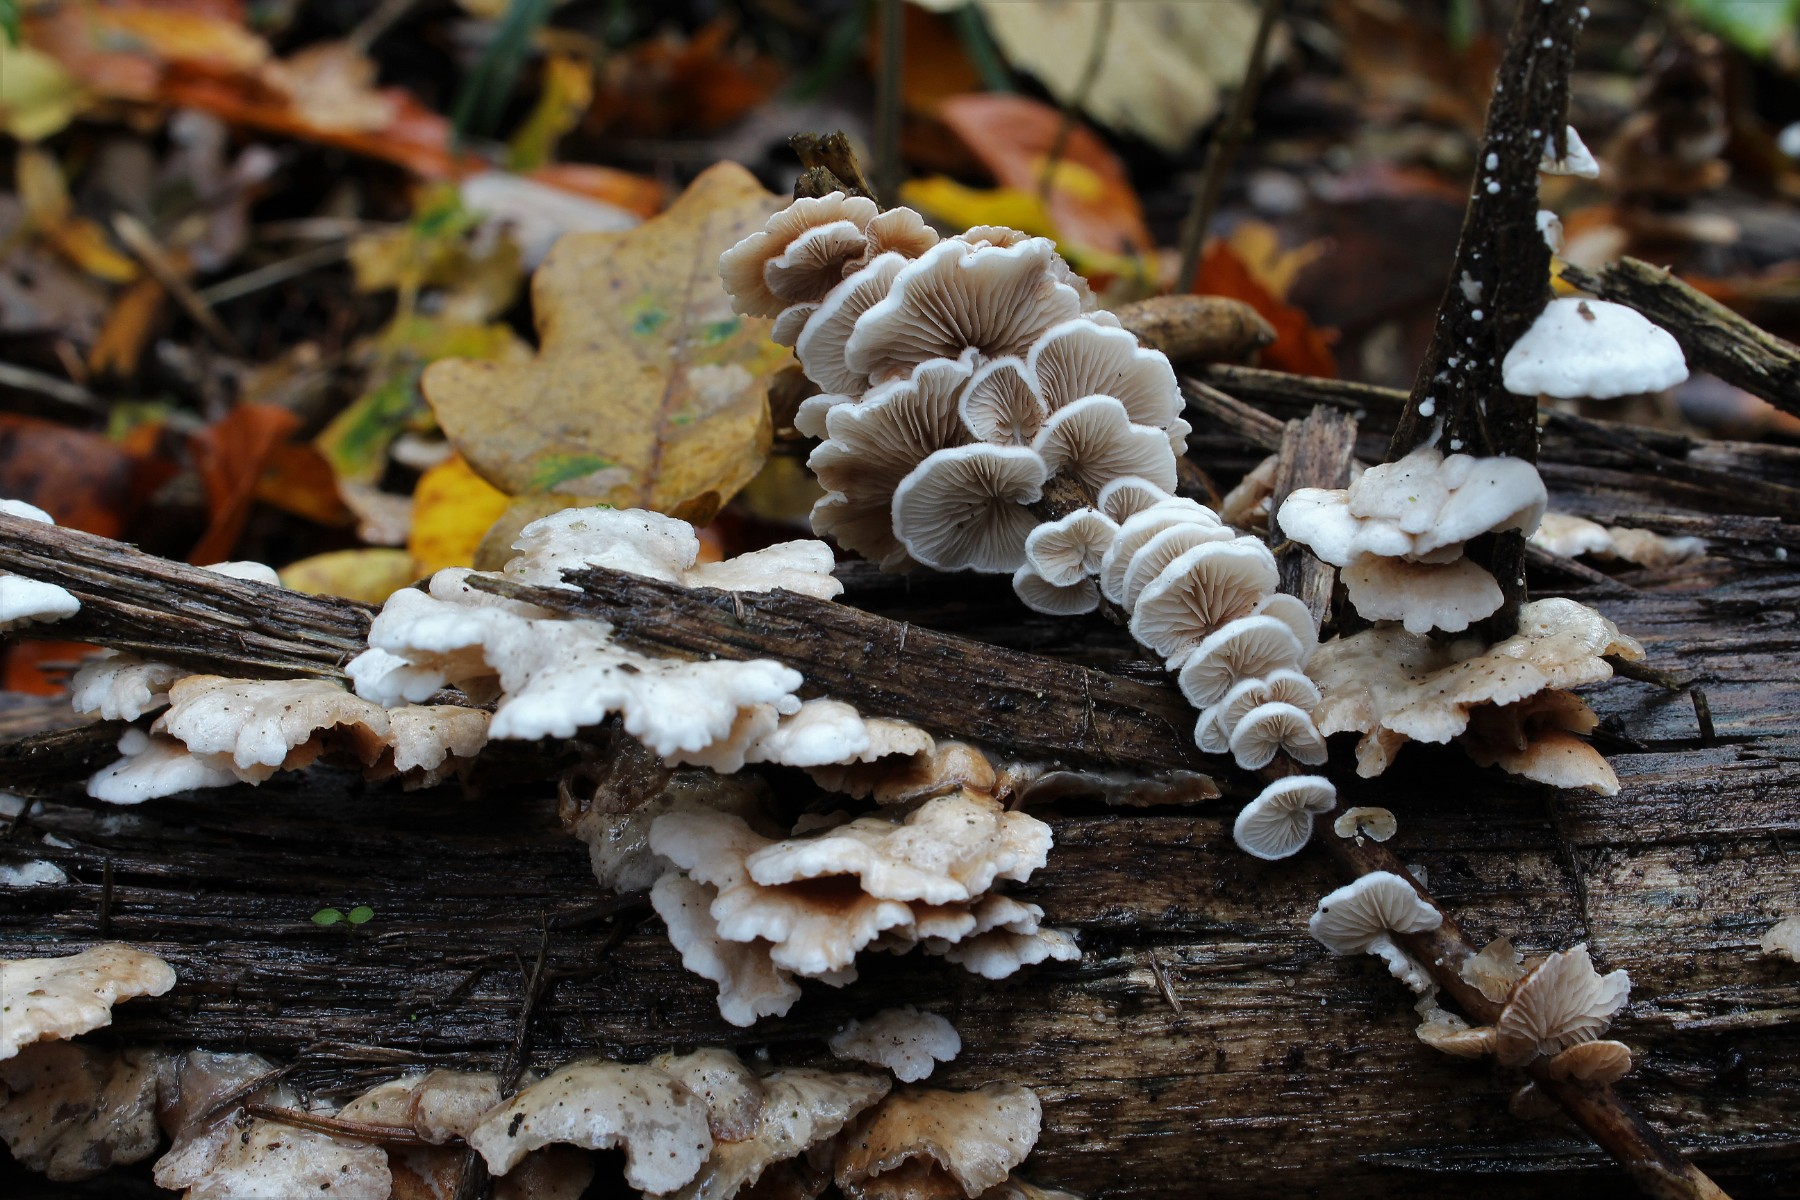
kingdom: Fungi
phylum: Basidiomycota
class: Agaricomycetes
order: Agaricales
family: Crepidotaceae
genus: Crepidotus
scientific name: Crepidotus variabilis
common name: forskelligformet muslingesvamp
